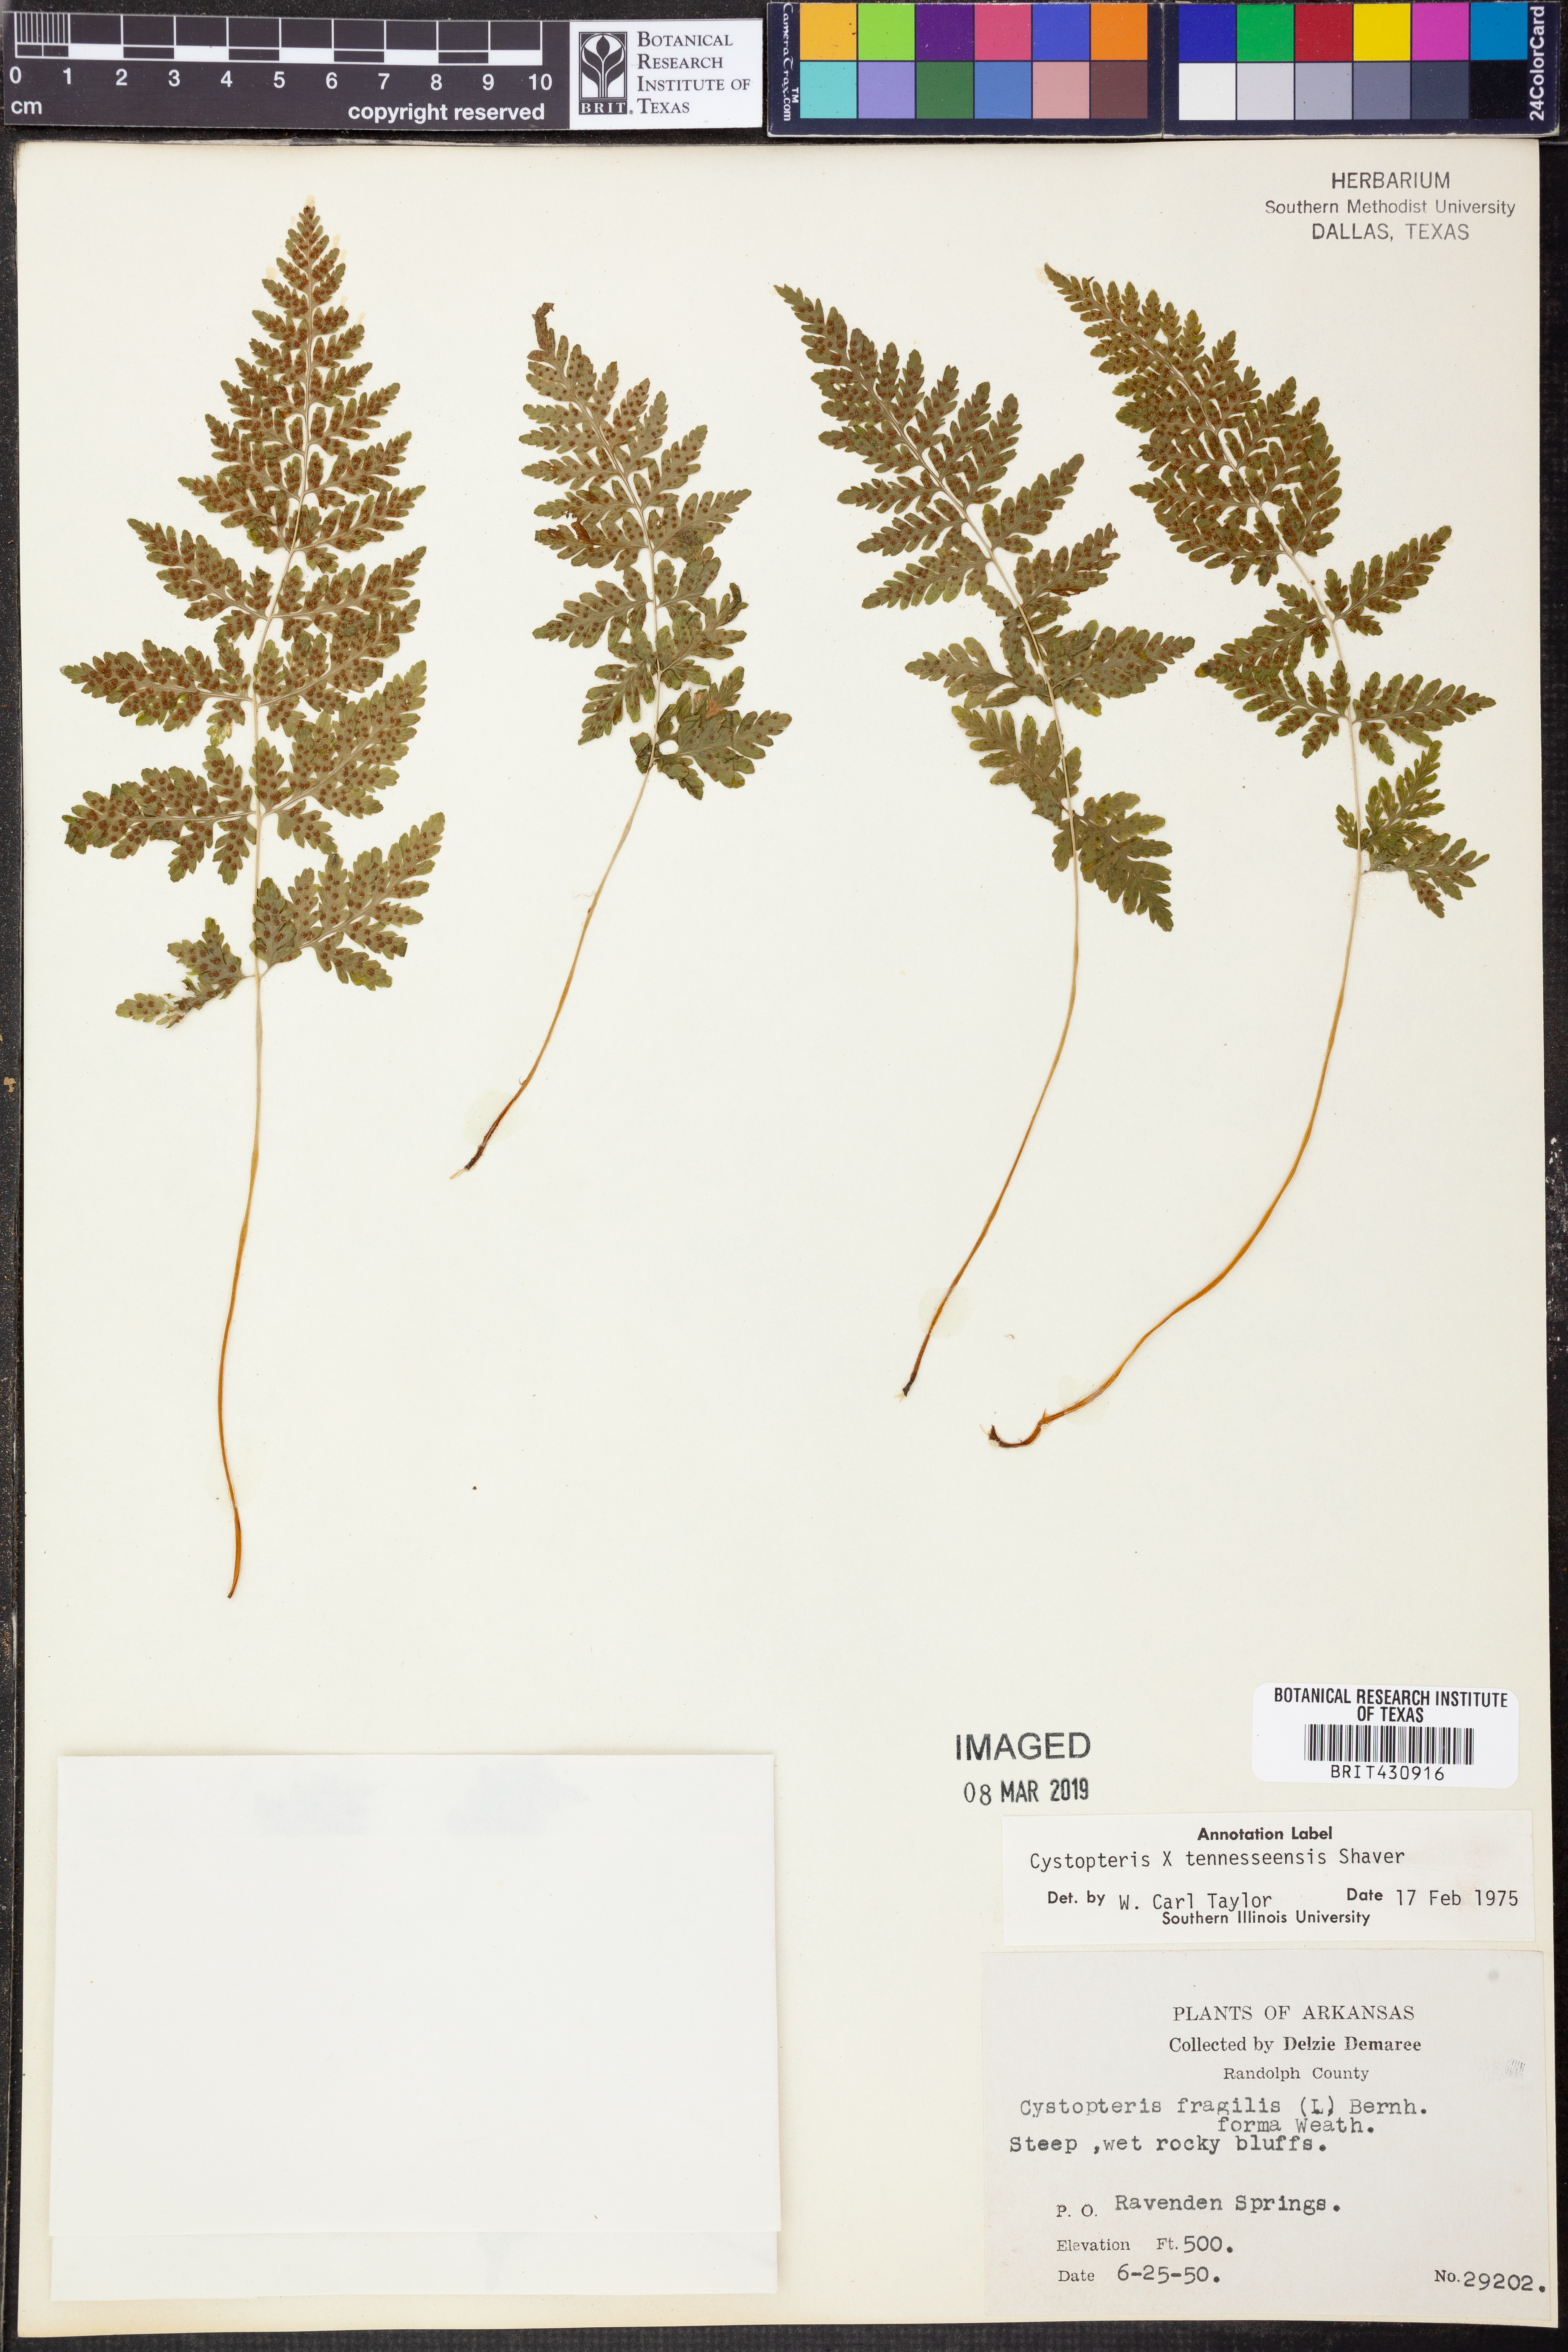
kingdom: Plantae
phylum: Tracheophyta
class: Polypodiopsida
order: Polypodiales
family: Cystopteridaceae
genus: Cystopteris
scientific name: Cystopteris tennesseensis
